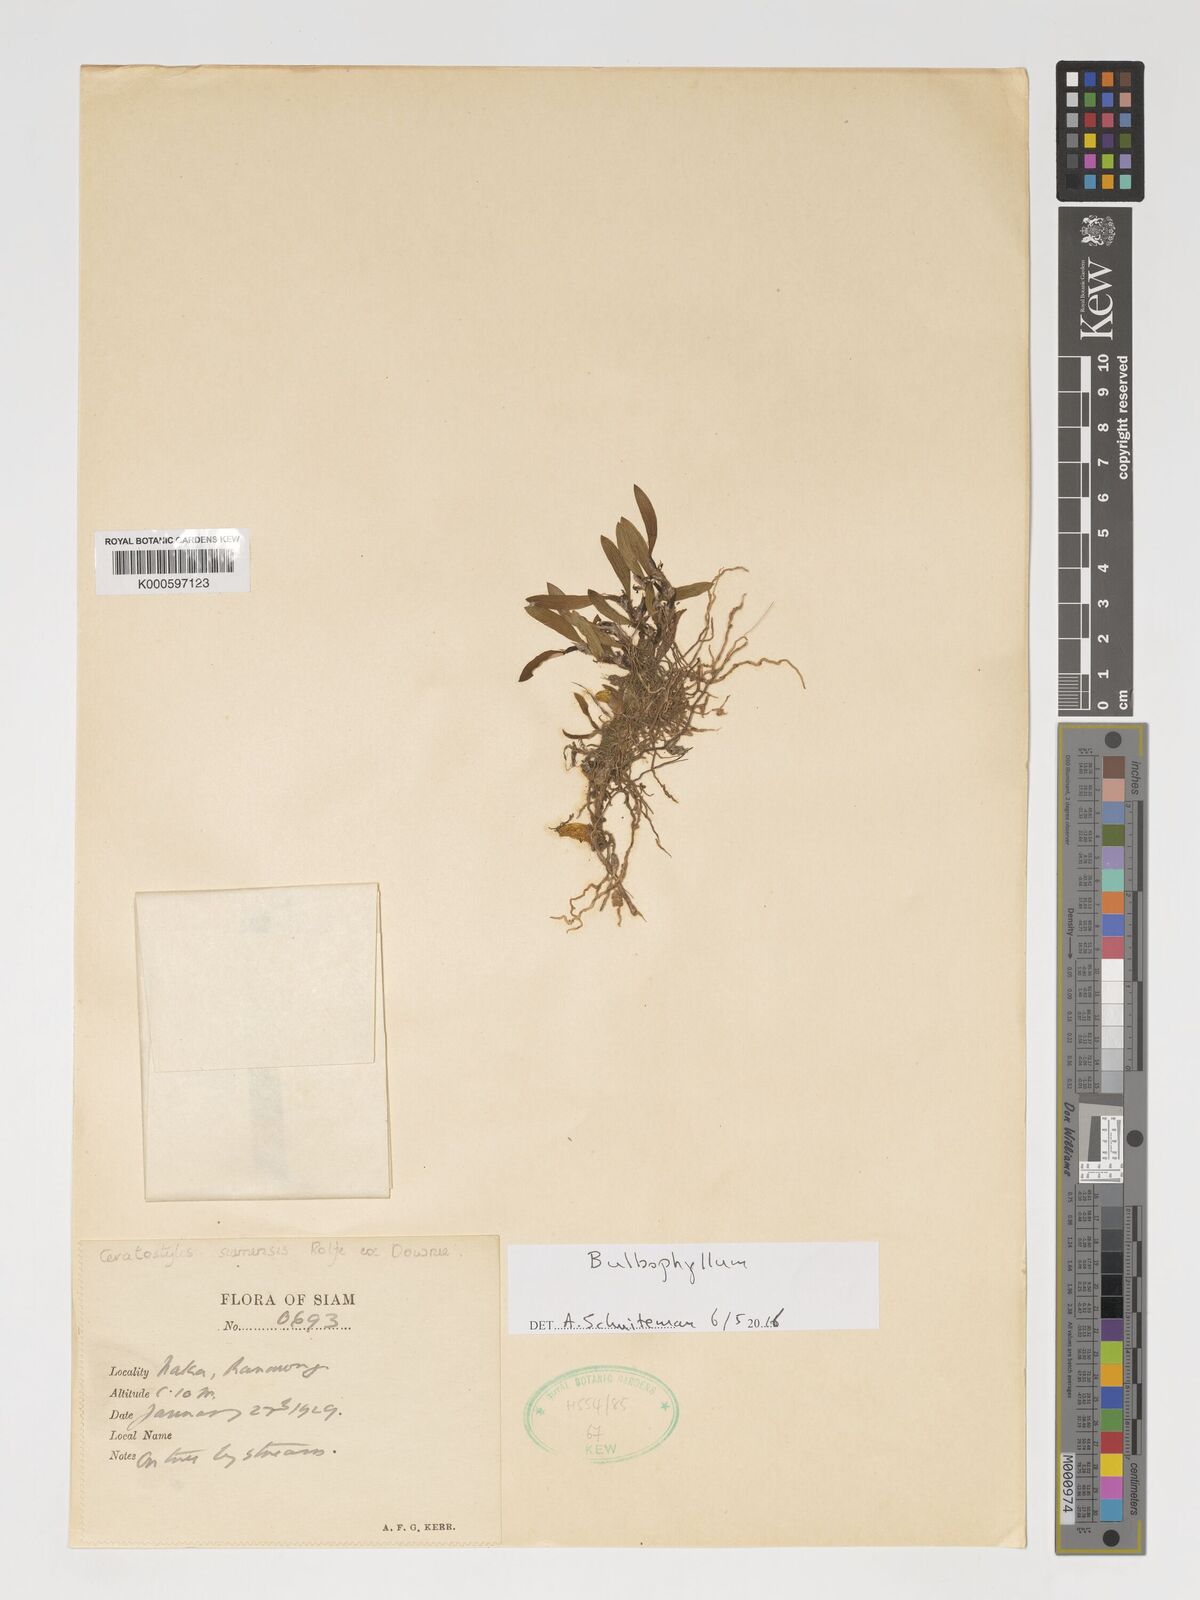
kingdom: Plantae
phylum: Tracheophyta
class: Liliopsida
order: Asparagales
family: Orchidaceae
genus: Bulbophyllum
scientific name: Bulbophyllum
